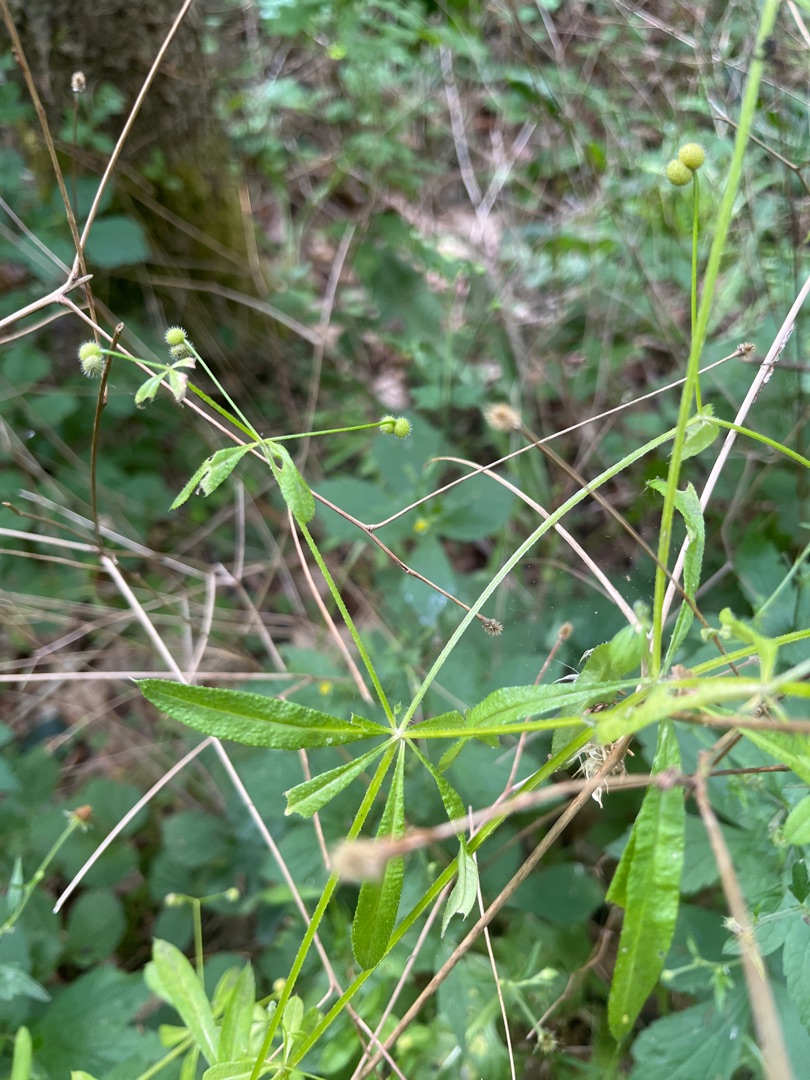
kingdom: Plantae
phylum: Tracheophyta
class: Magnoliopsida
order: Gentianales
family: Rubiaceae
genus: Galium
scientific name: Galium aparine
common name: Burre-snerre
